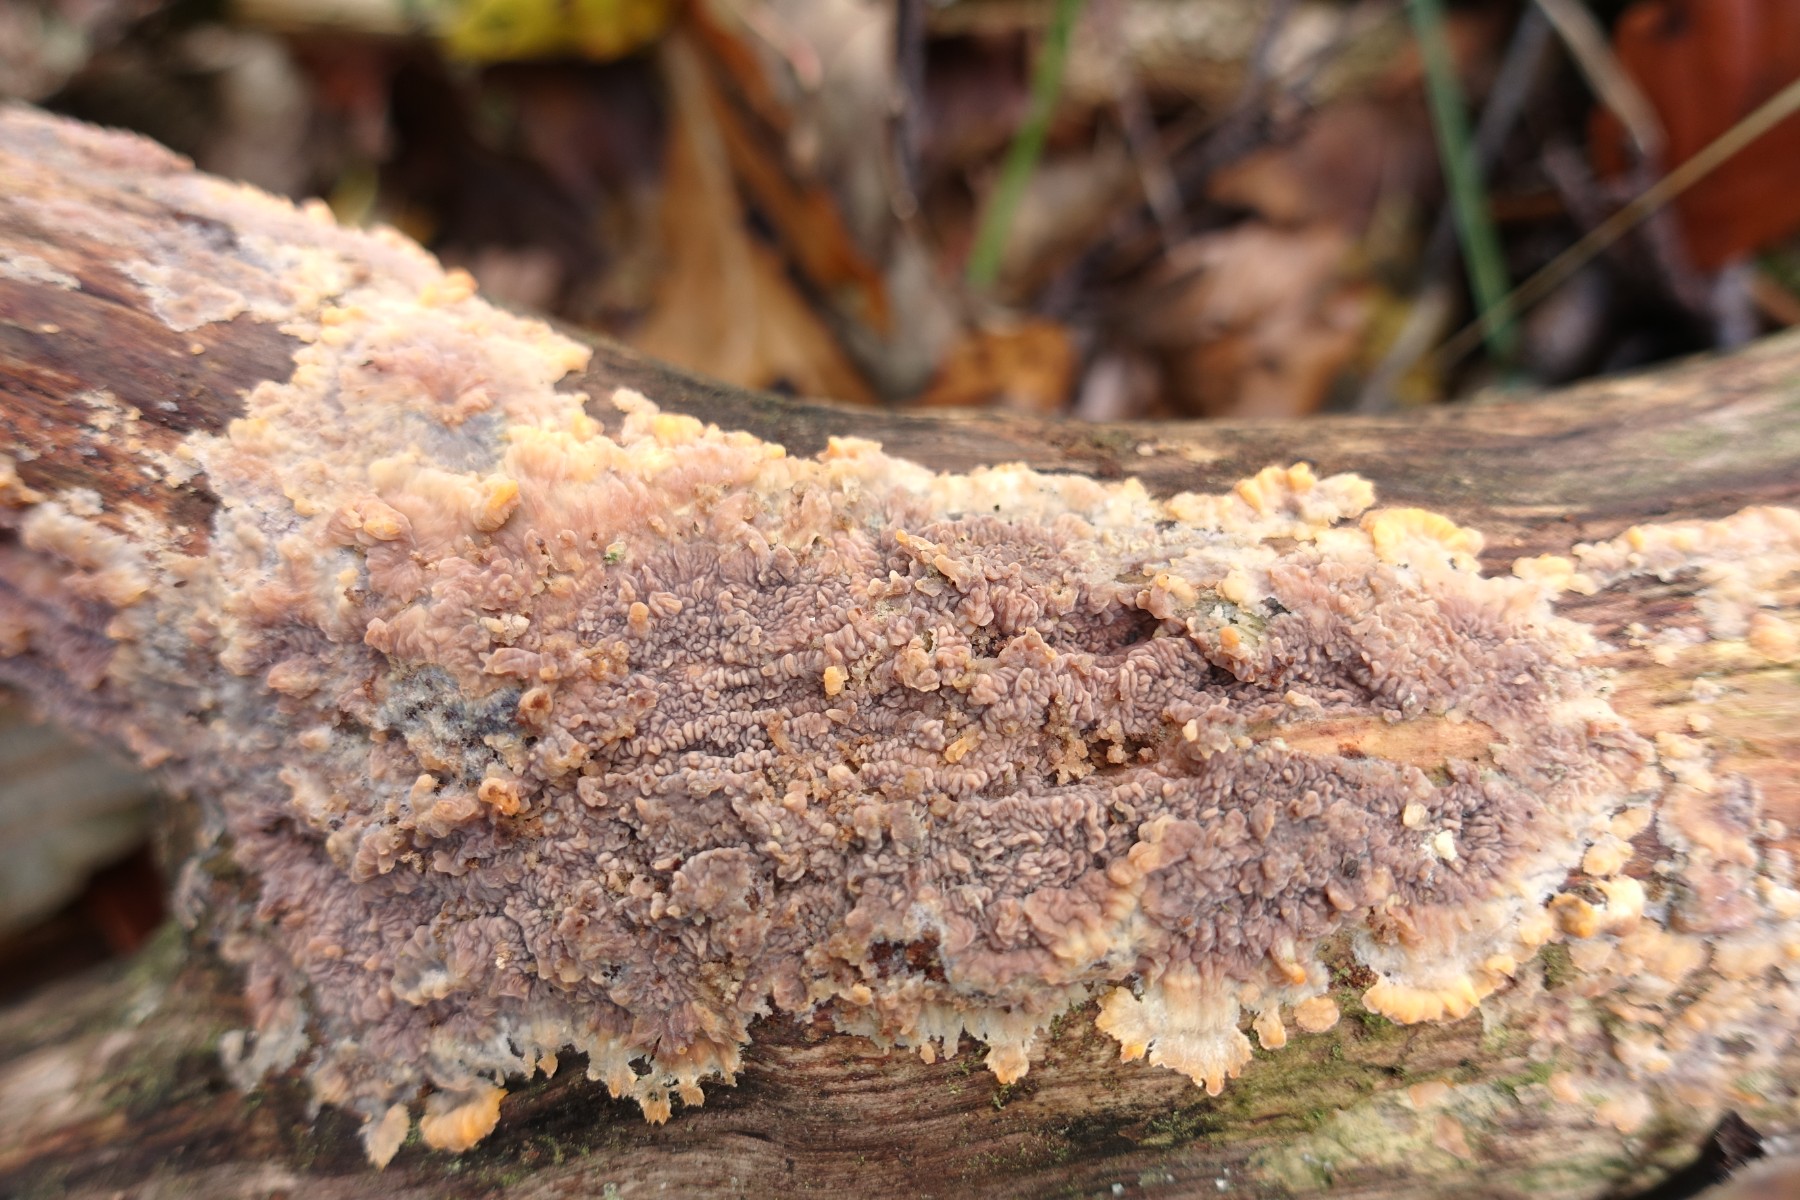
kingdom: Fungi
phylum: Basidiomycota
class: Agaricomycetes
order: Polyporales
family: Meruliaceae
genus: Phlebia
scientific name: Phlebia radiata
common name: stråle-åresvamp
